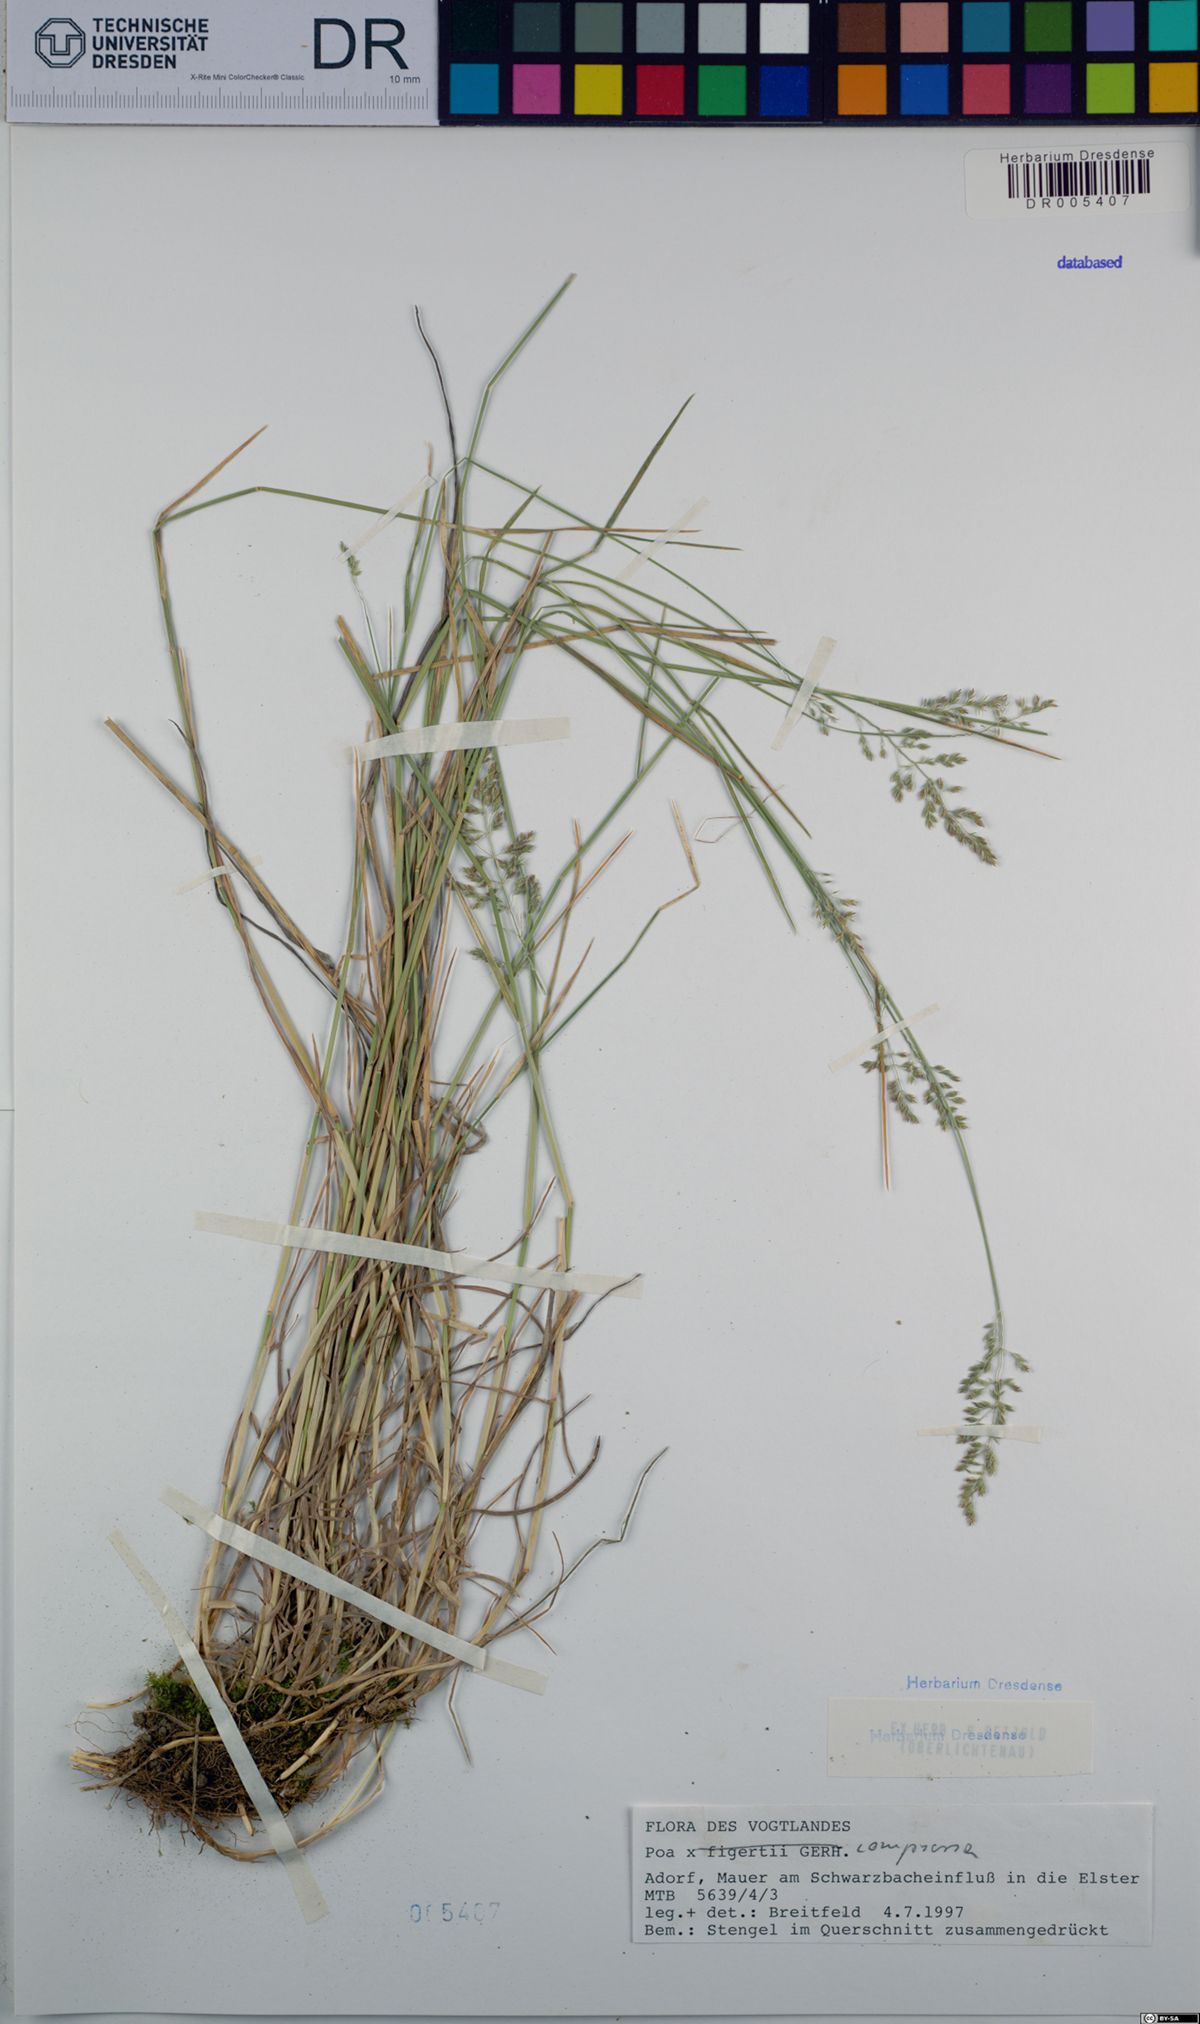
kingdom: Plantae
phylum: Tracheophyta
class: Liliopsida
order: Poales
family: Poaceae
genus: Poa
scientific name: Poa compressa
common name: Canada bluegrass
